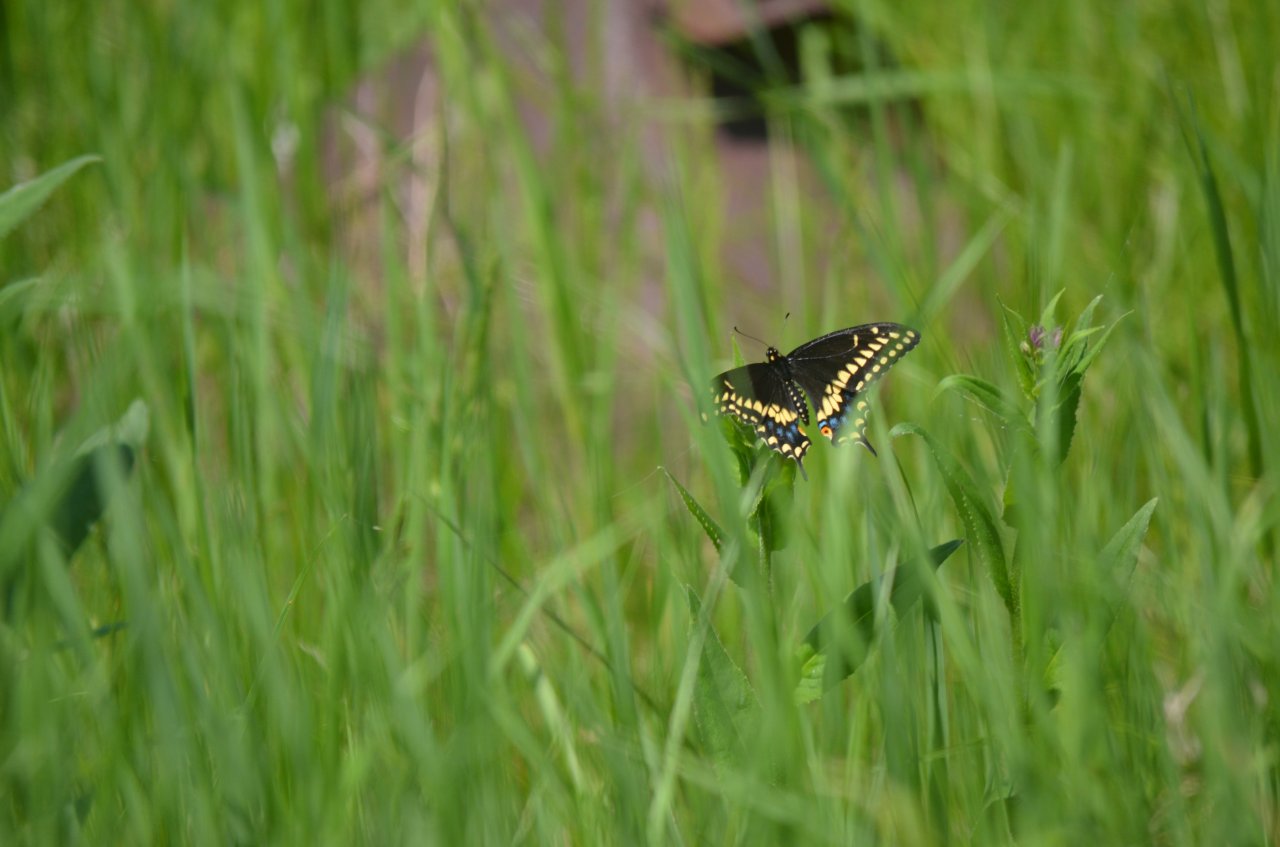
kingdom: Animalia
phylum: Arthropoda
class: Insecta
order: Lepidoptera
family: Papilionidae
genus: Papilio
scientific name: Papilio polyxenes
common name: Black Swallowtail
